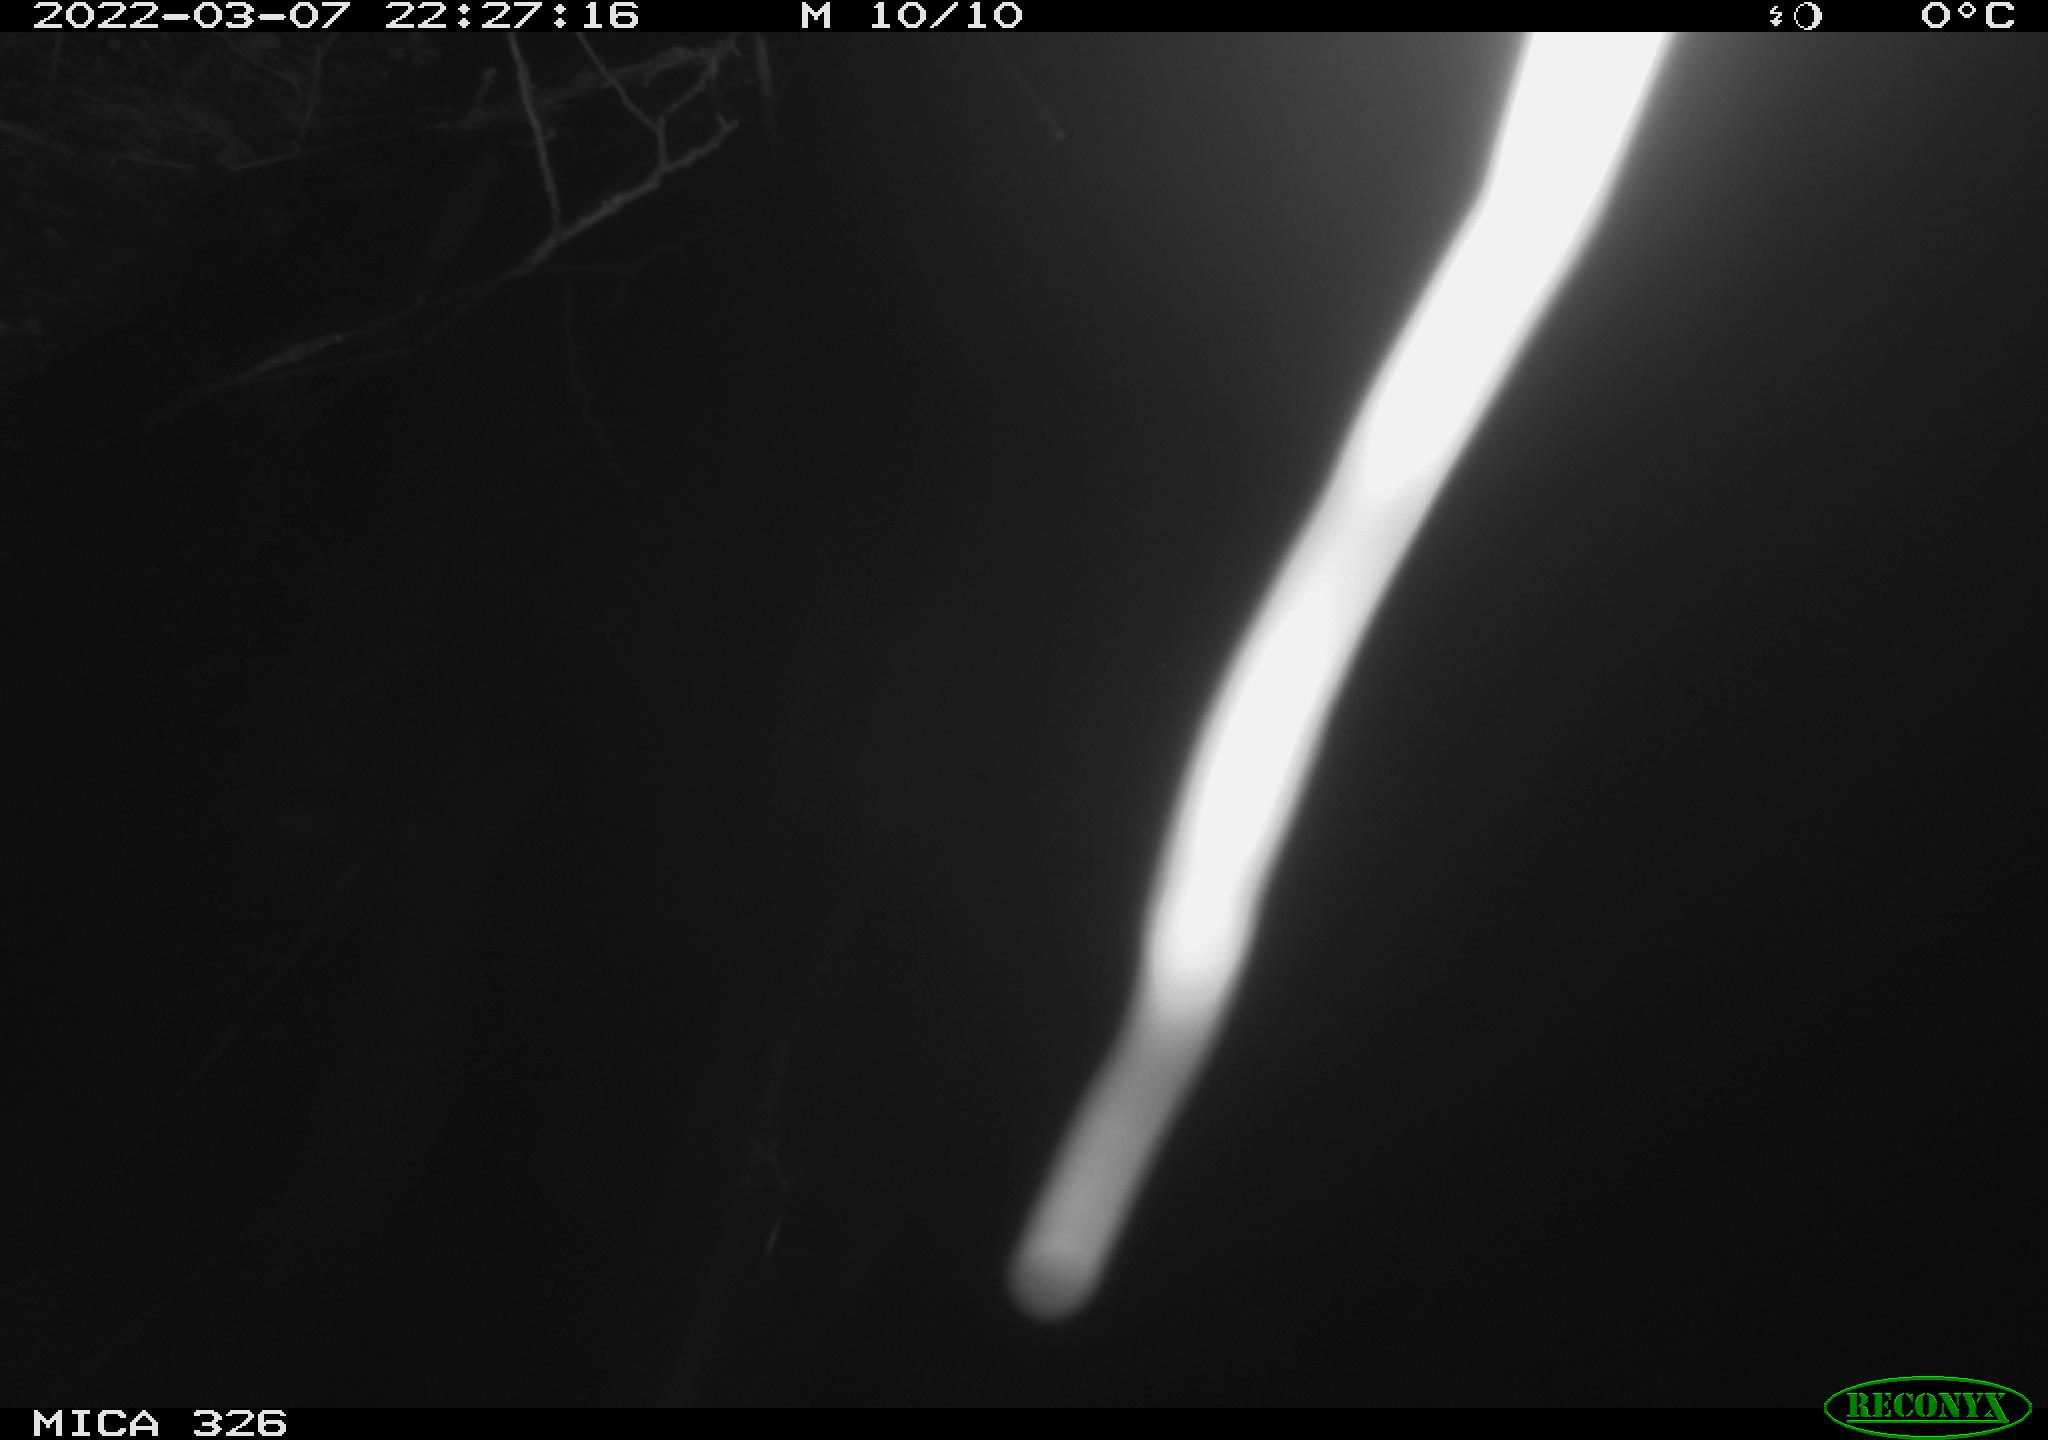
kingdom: Animalia
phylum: Chordata
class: Mammalia
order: Rodentia
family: Muridae
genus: Rattus
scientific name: Rattus norvegicus
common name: Brown rat
